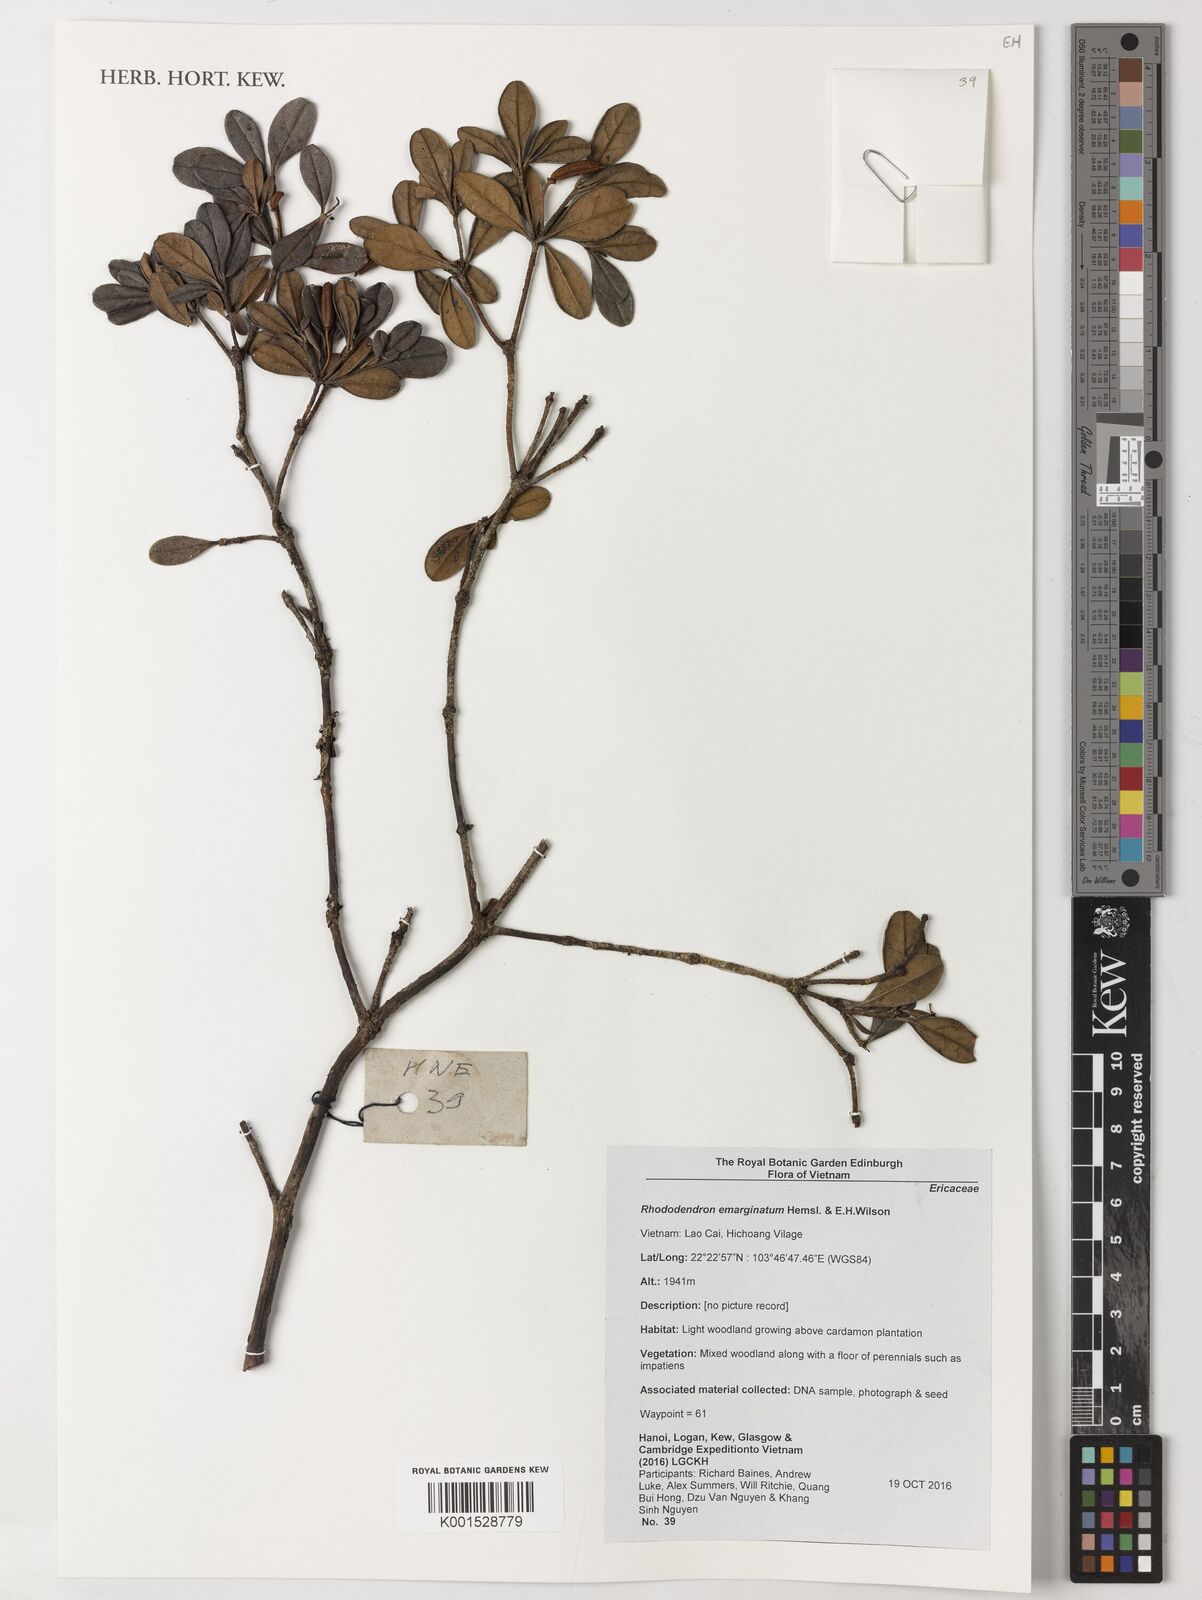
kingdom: Plantae
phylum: Tracheophyta
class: Magnoliopsida
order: Ericales
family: Ericaceae
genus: Rhododendron
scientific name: Rhododendron emarginatum
